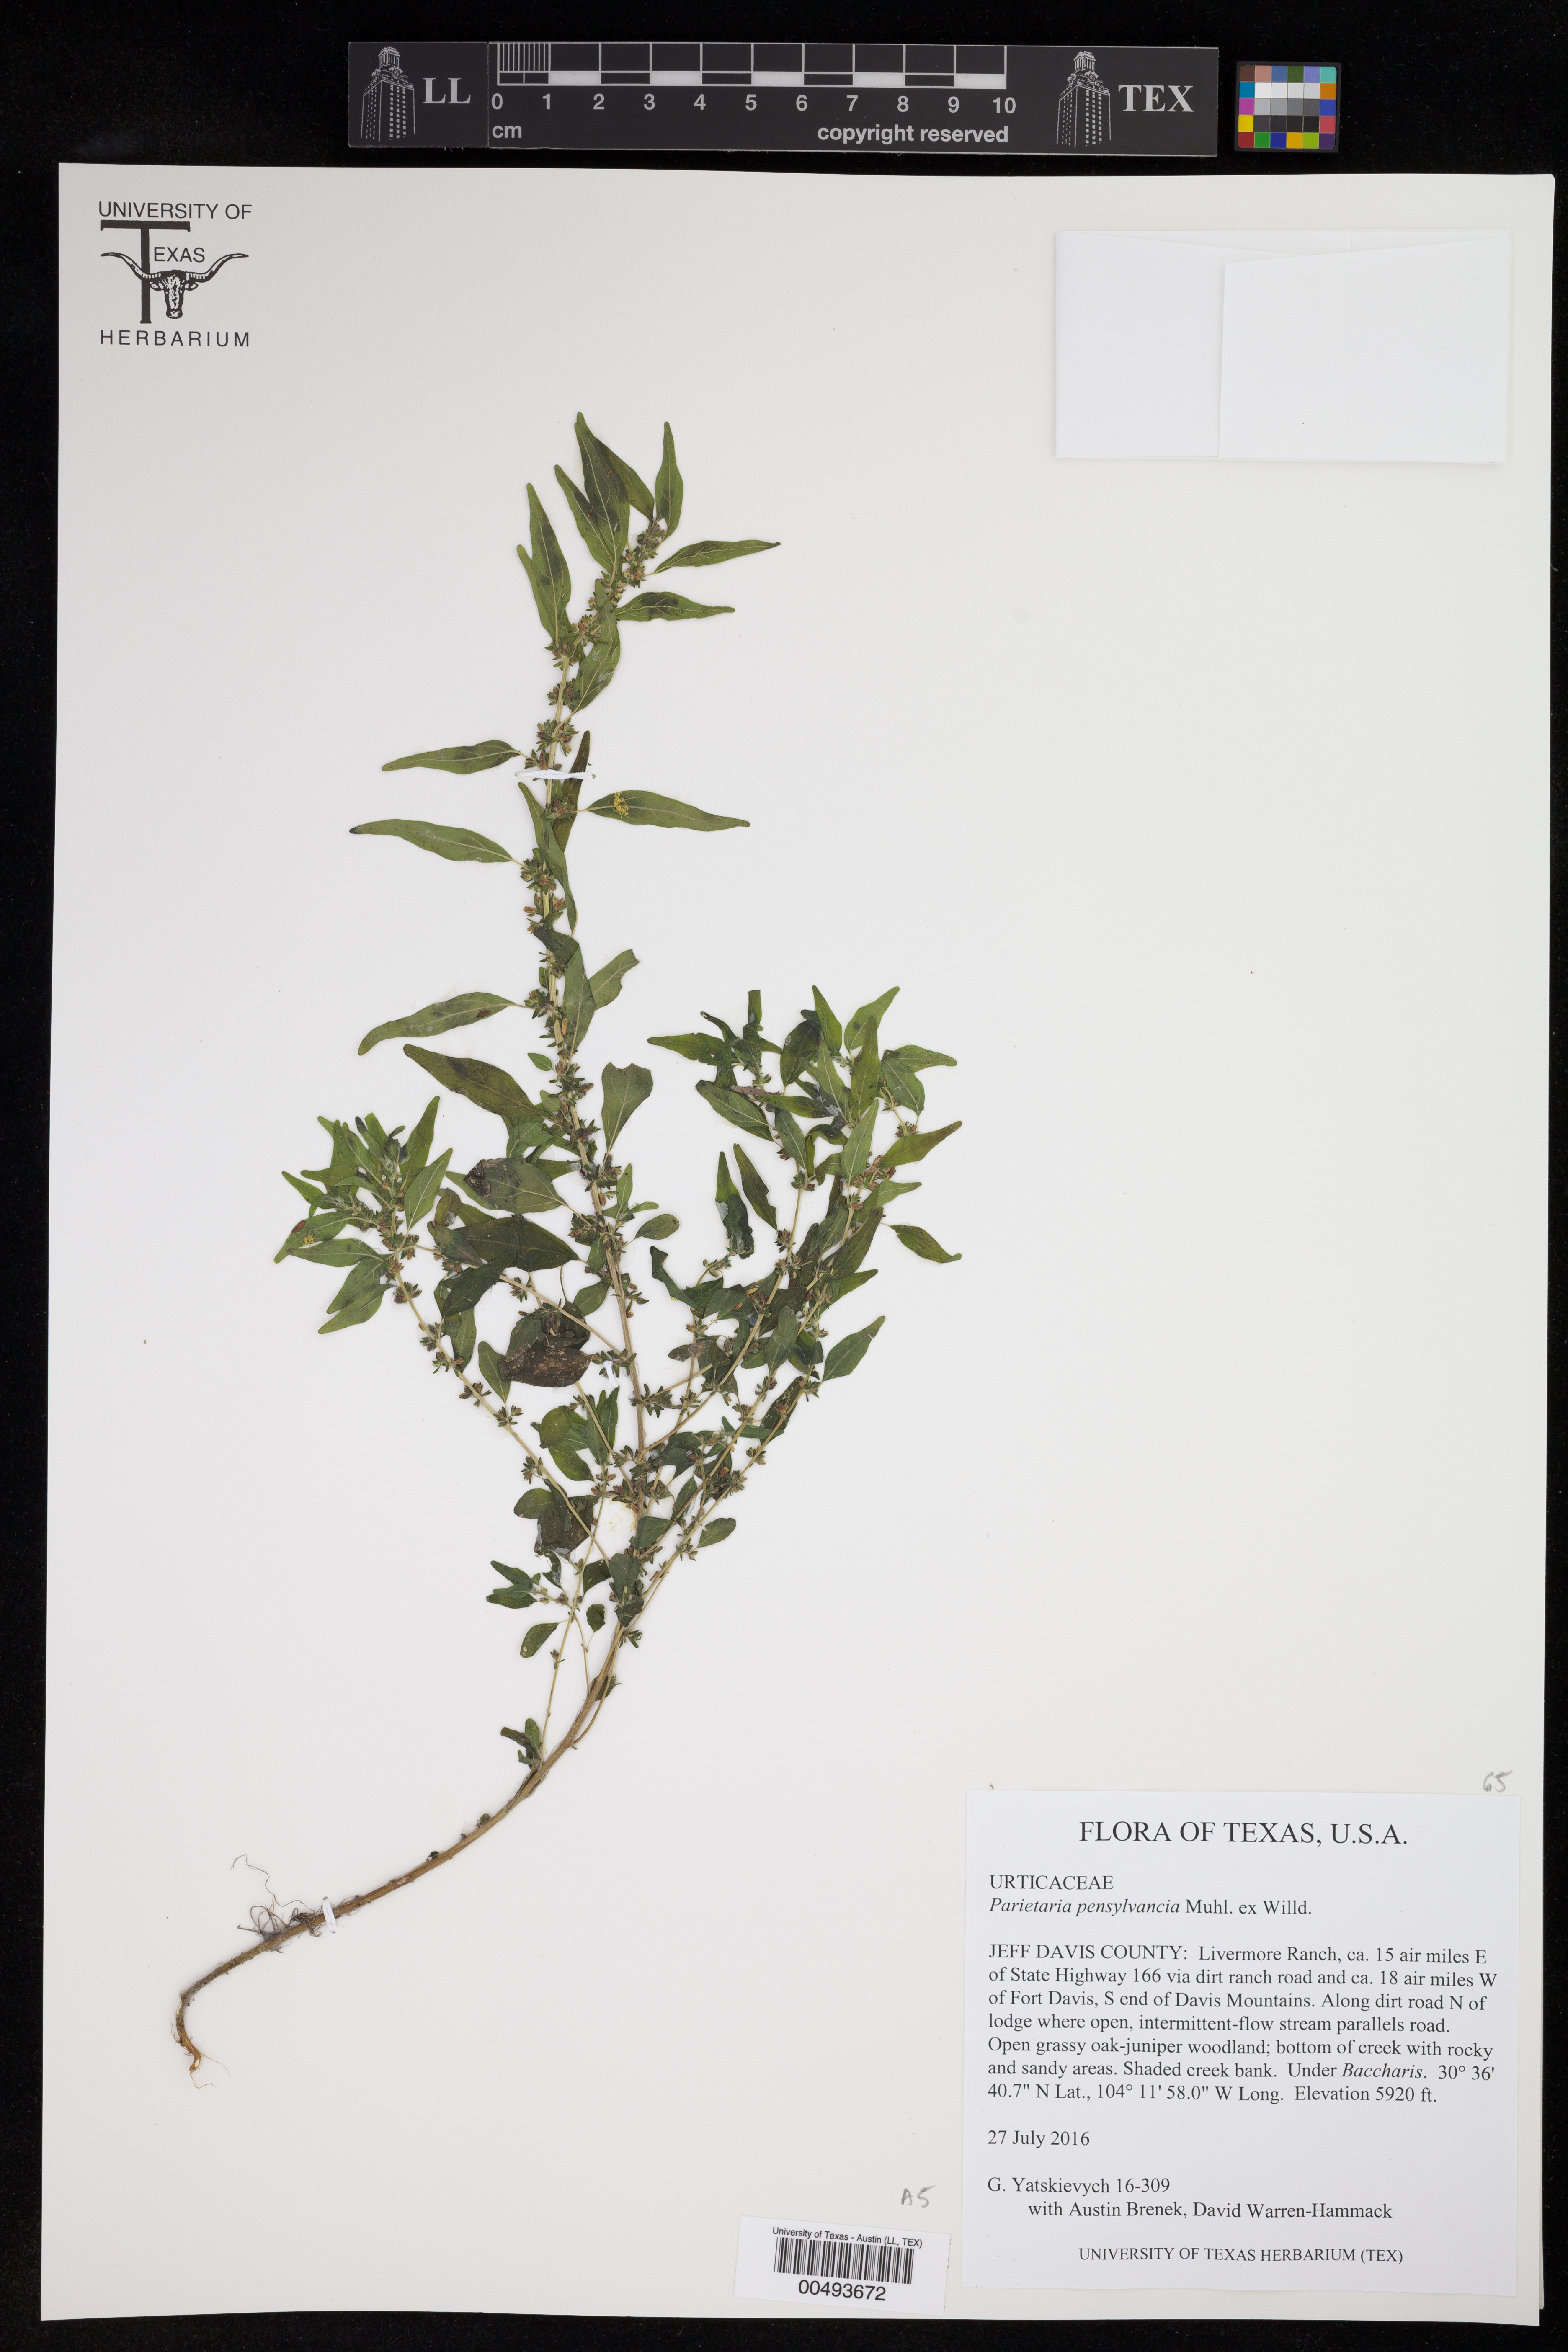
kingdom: Plantae
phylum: Tracheophyta
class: Magnoliopsida
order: Rosales
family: Urticaceae
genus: Parietaria
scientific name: Parietaria pensylvanica
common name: Pennsylvania pellitory
